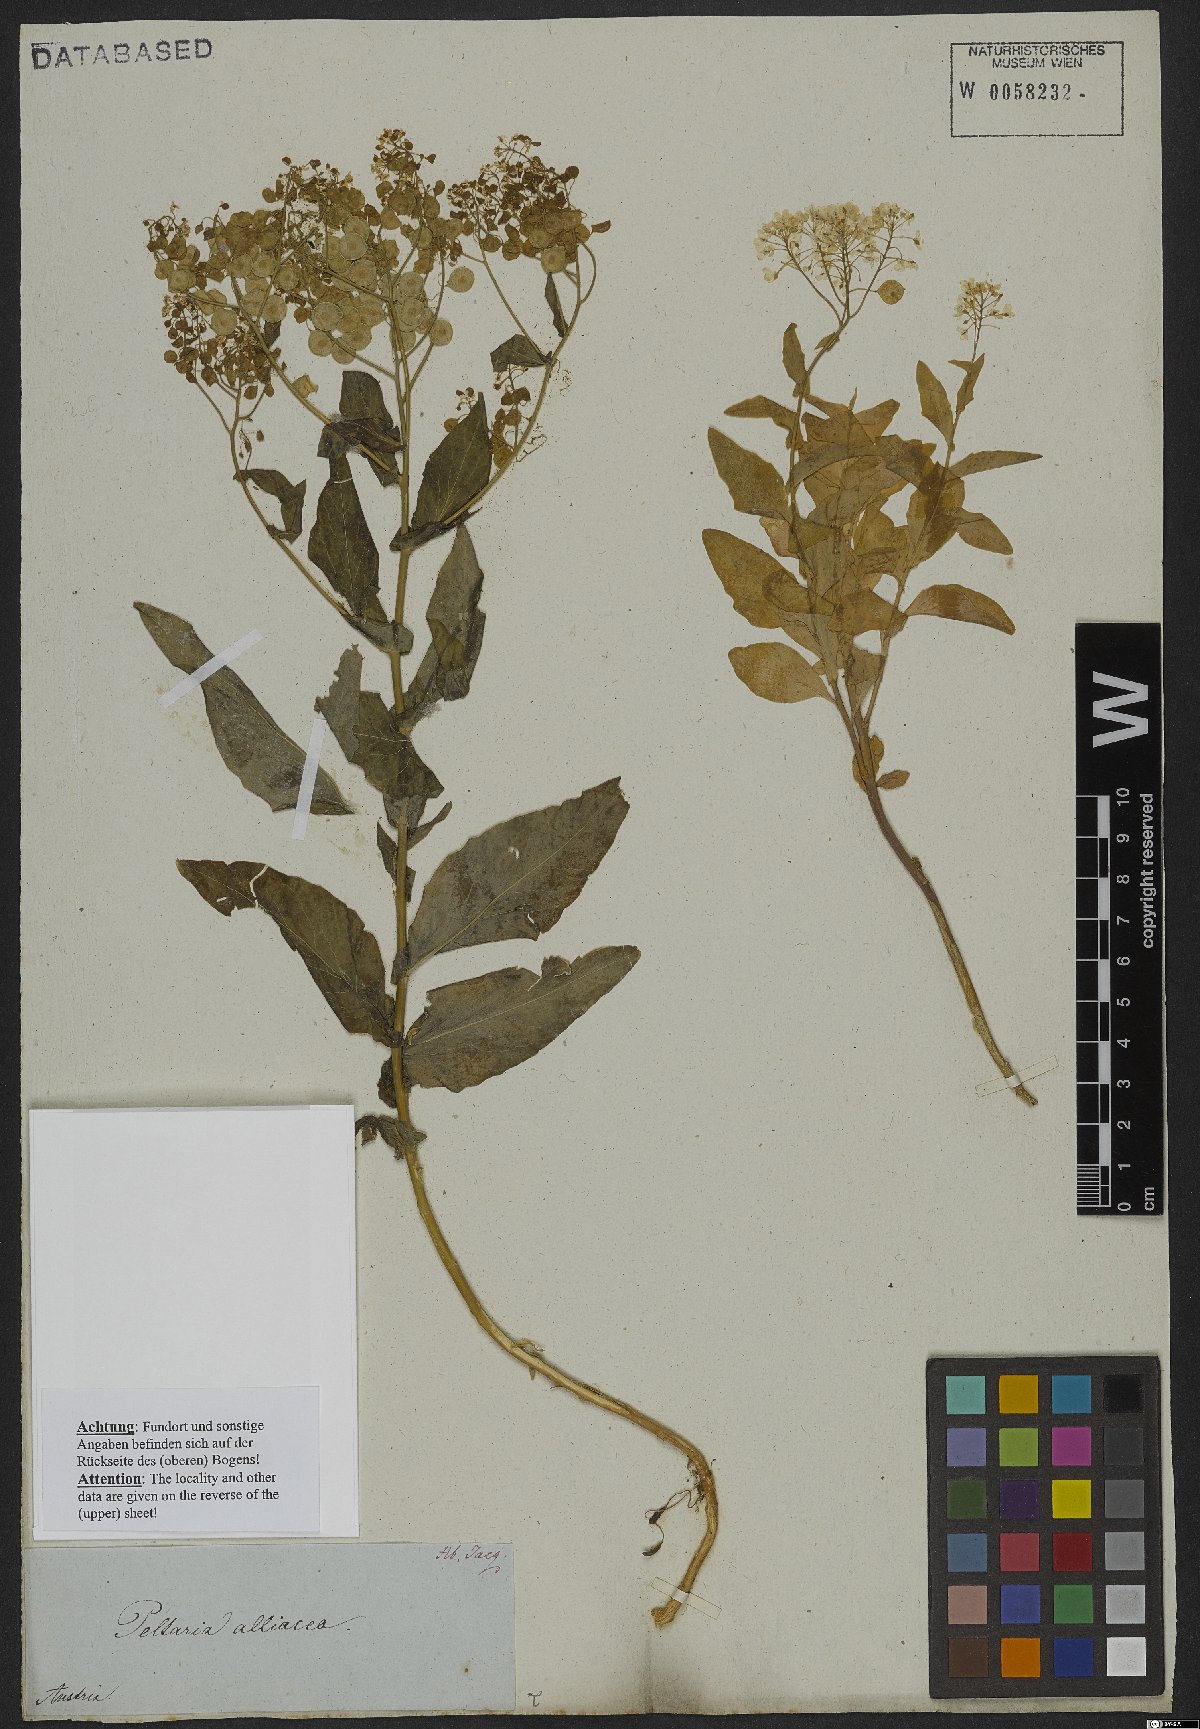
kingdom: Plantae
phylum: Tracheophyta
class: Magnoliopsida
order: Brassicales
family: Brassicaceae
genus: Peltaria
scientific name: Peltaria alliacea
